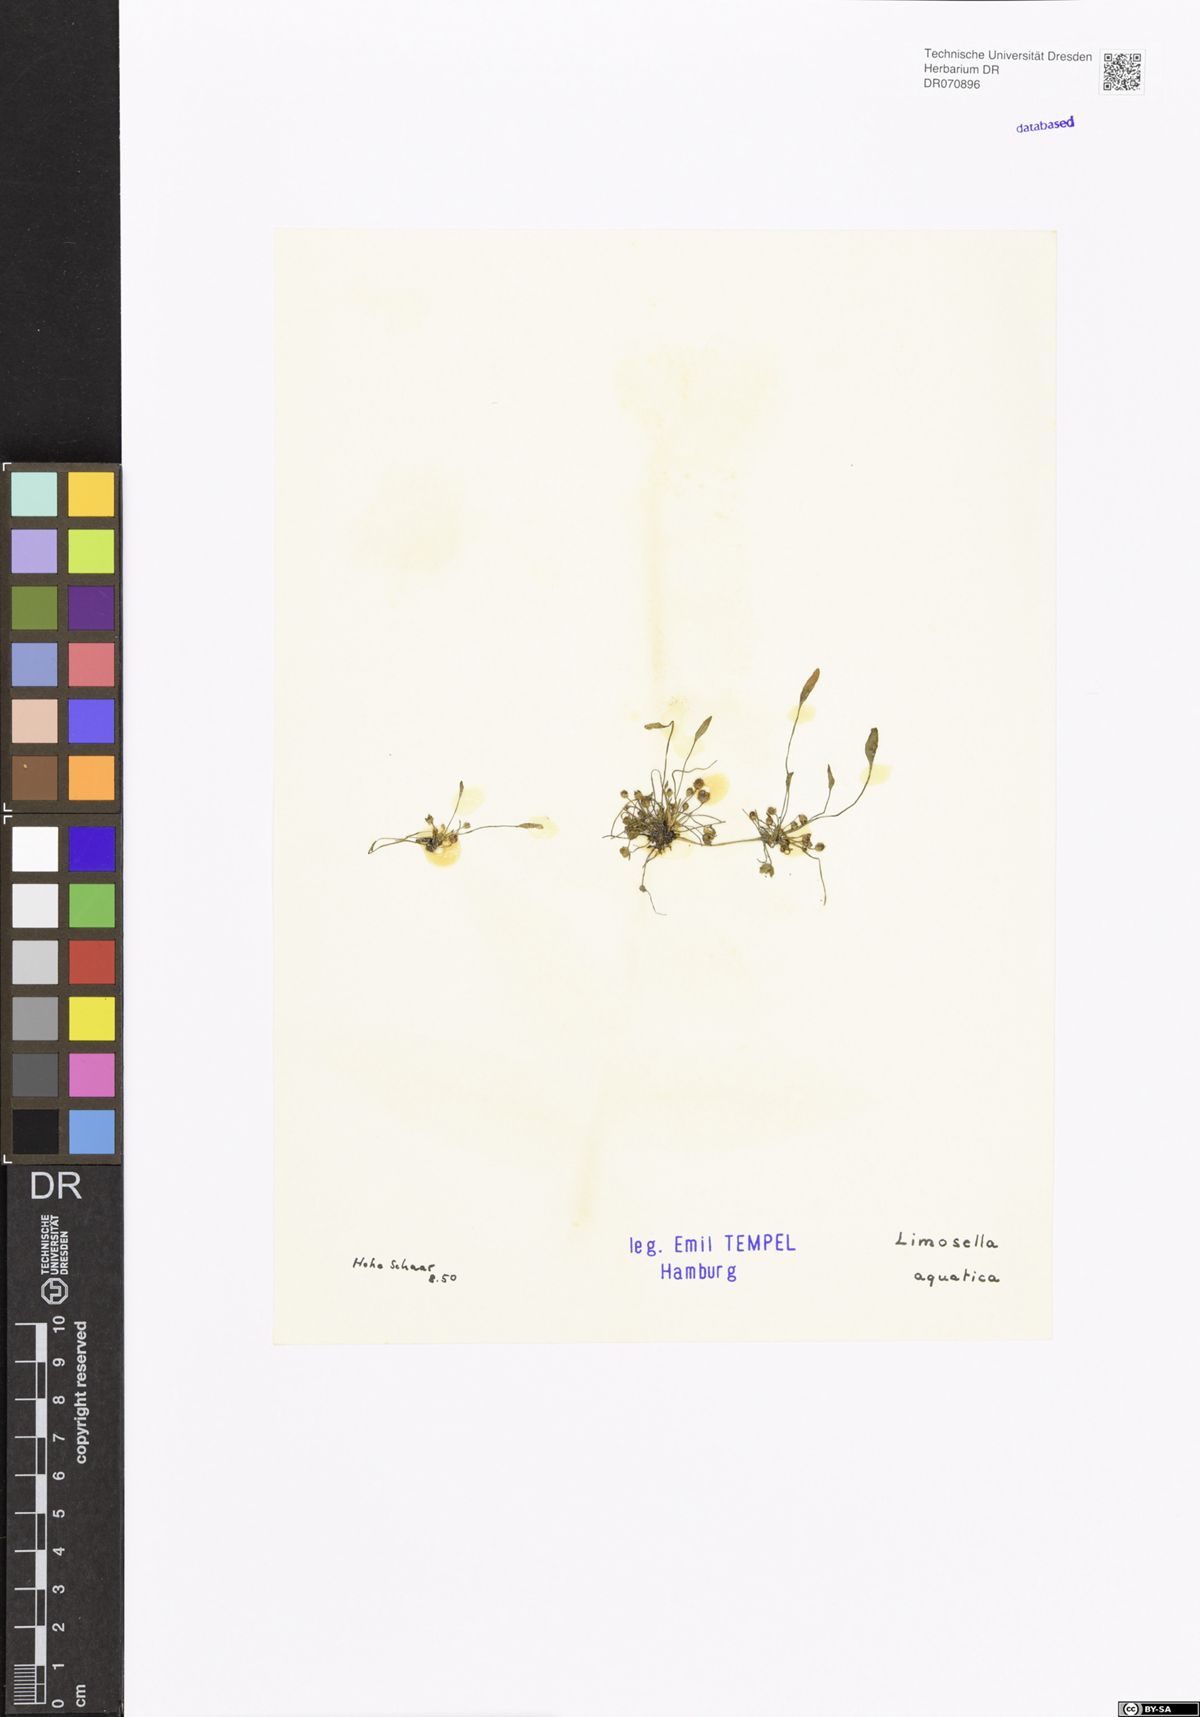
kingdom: Plantae
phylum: Tracheophyta
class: Magnoliopsida
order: Lamiales
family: Scrophulariaceae
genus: Limosella
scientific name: Limosella aquatica
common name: Mudwort
